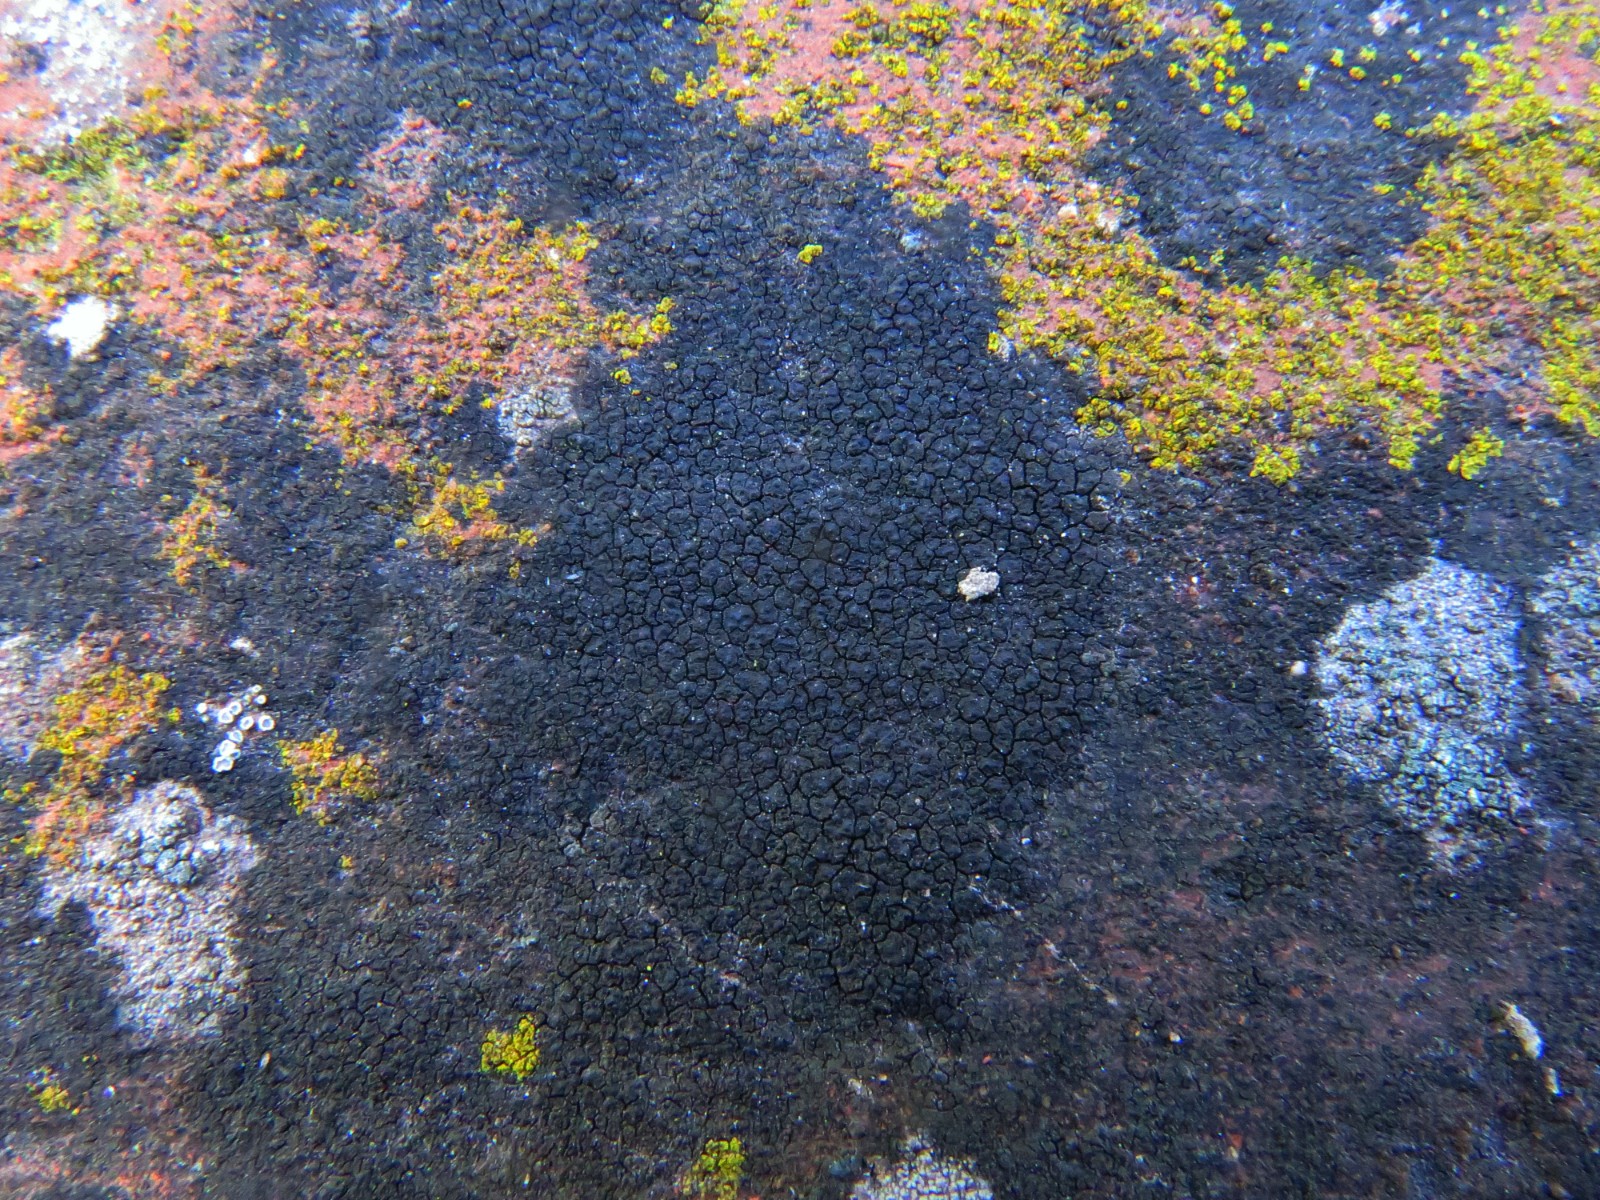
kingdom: Fungi
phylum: Ascomycota
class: Eurotiomycetes
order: Verrucariales
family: Verrucariaceae
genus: Verrucaria
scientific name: Verrucaria nigrescens
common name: sortbrun vortelav
